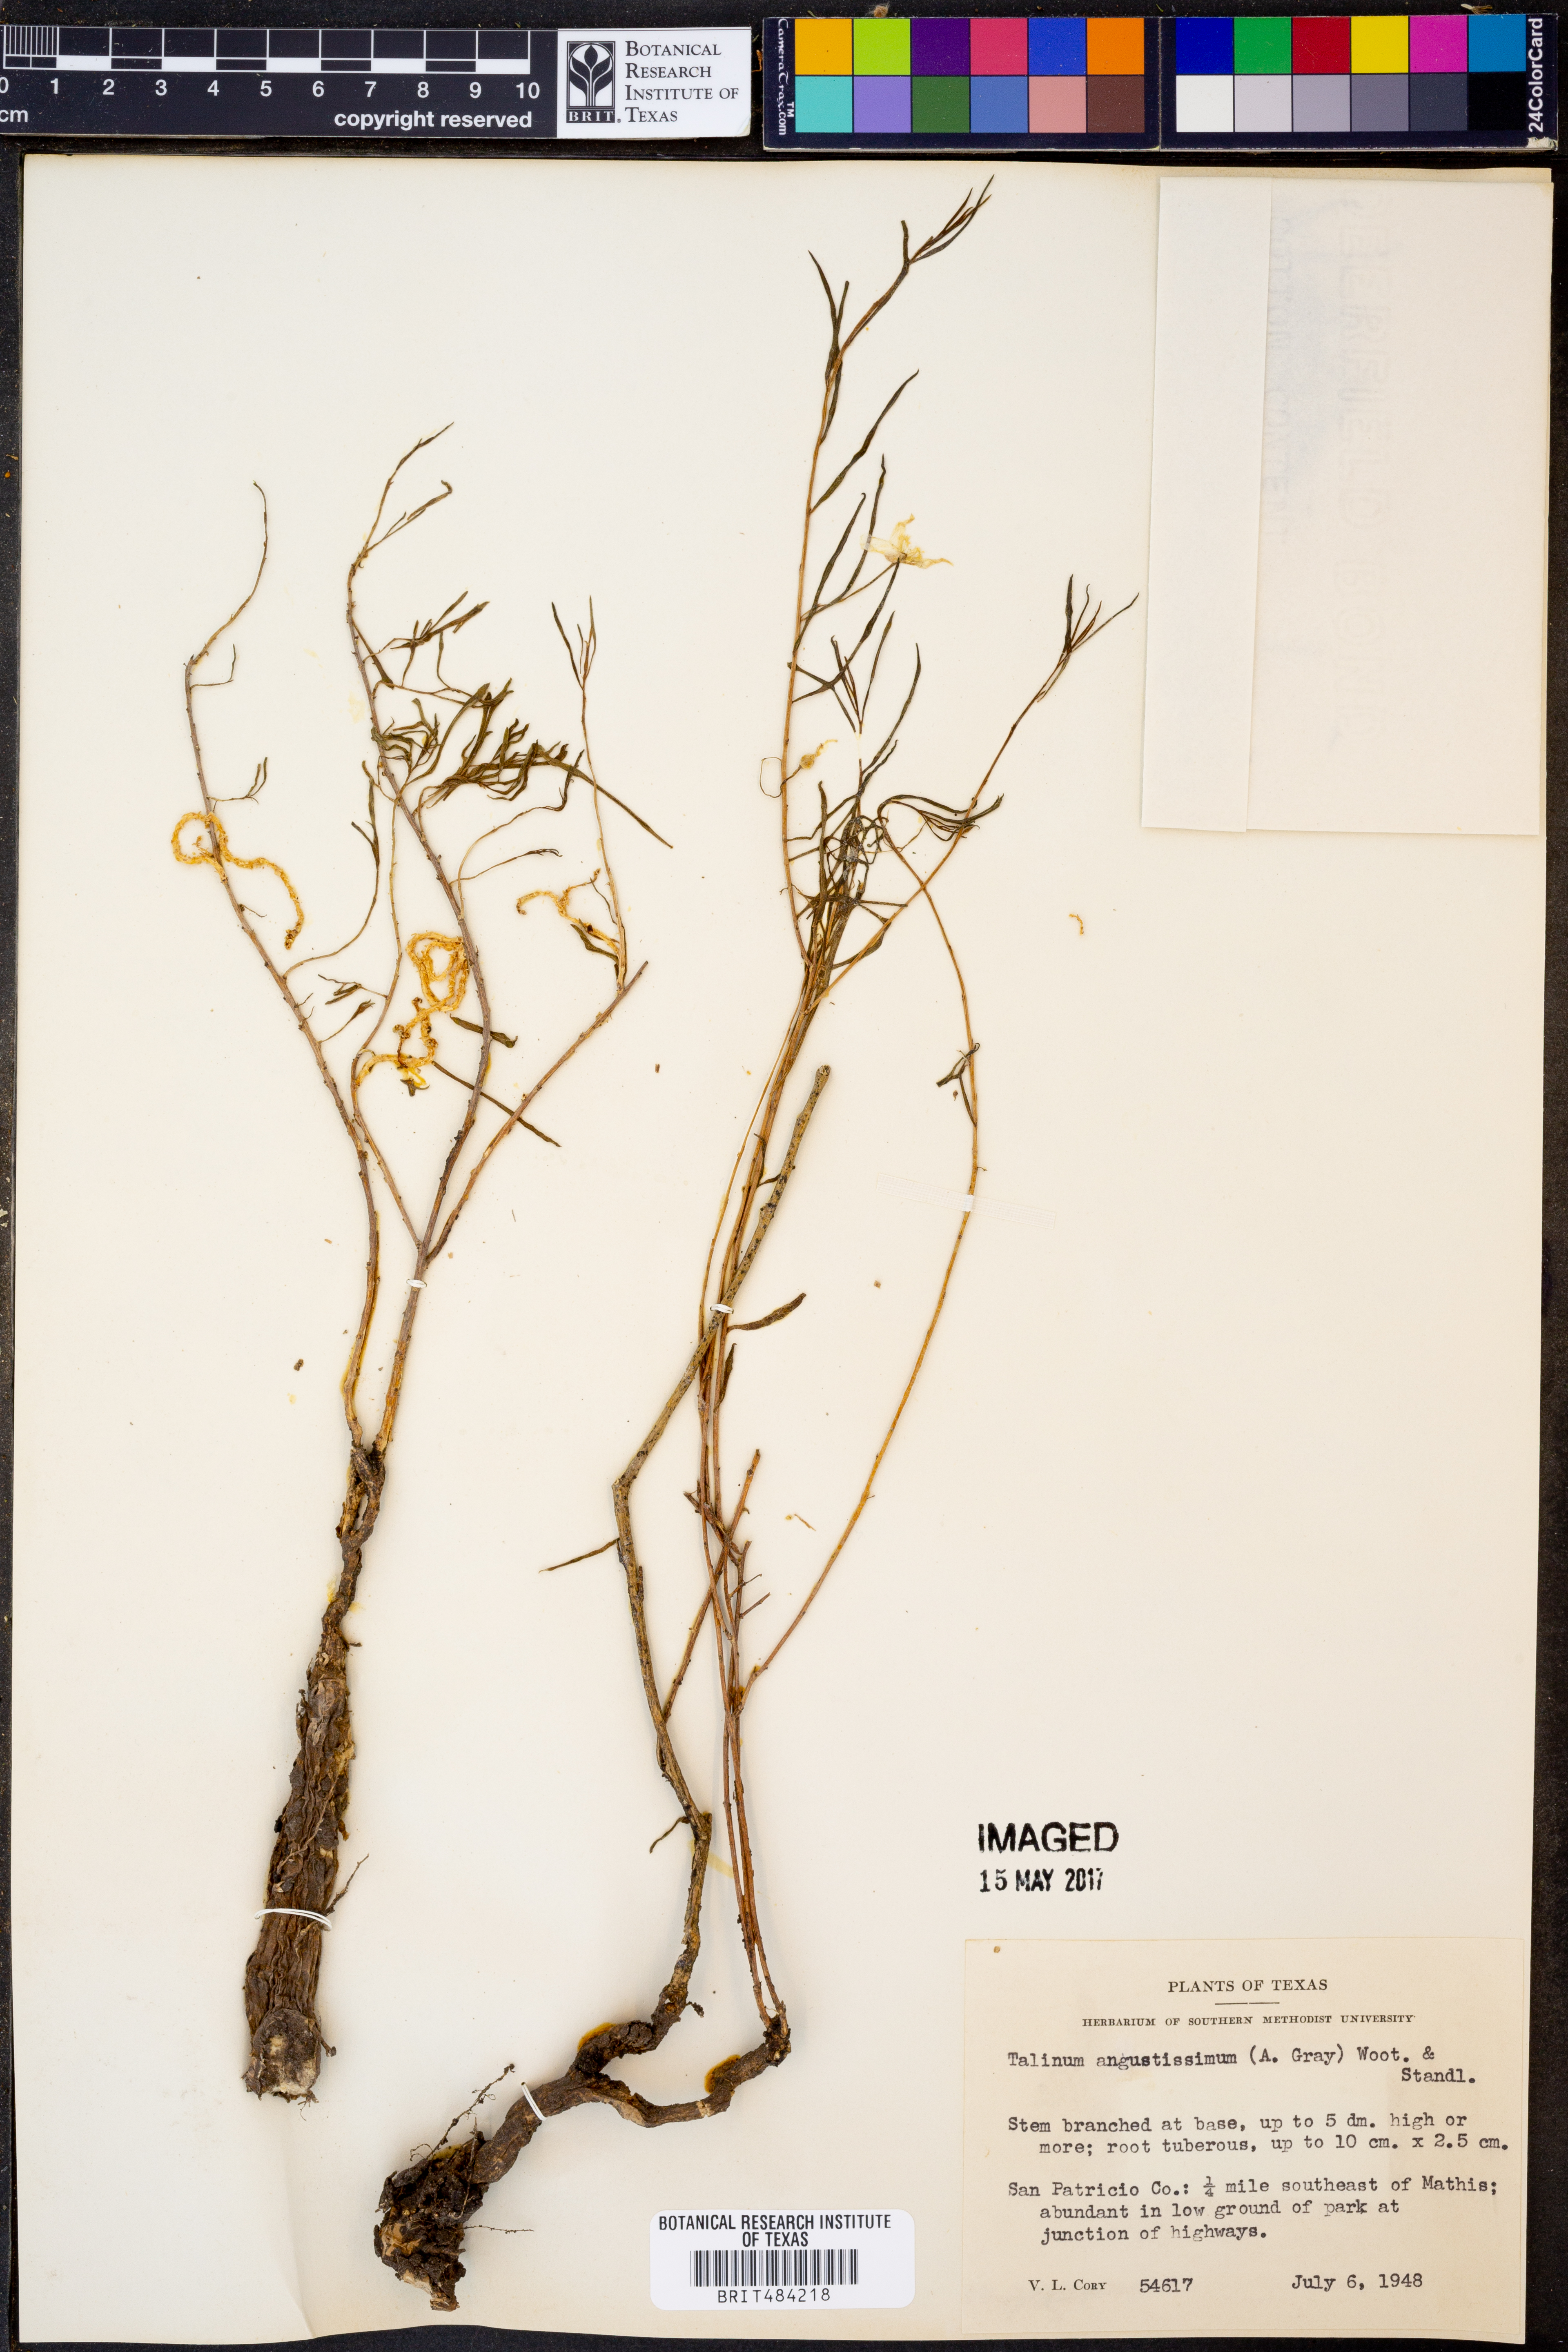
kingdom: Plantae
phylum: Tracheophyta
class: Magnoliopsida
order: Caryophyllales
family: Montiaceae
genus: Phemeranthus
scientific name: Phemeranthus aurantiacus
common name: Orange fameflower
